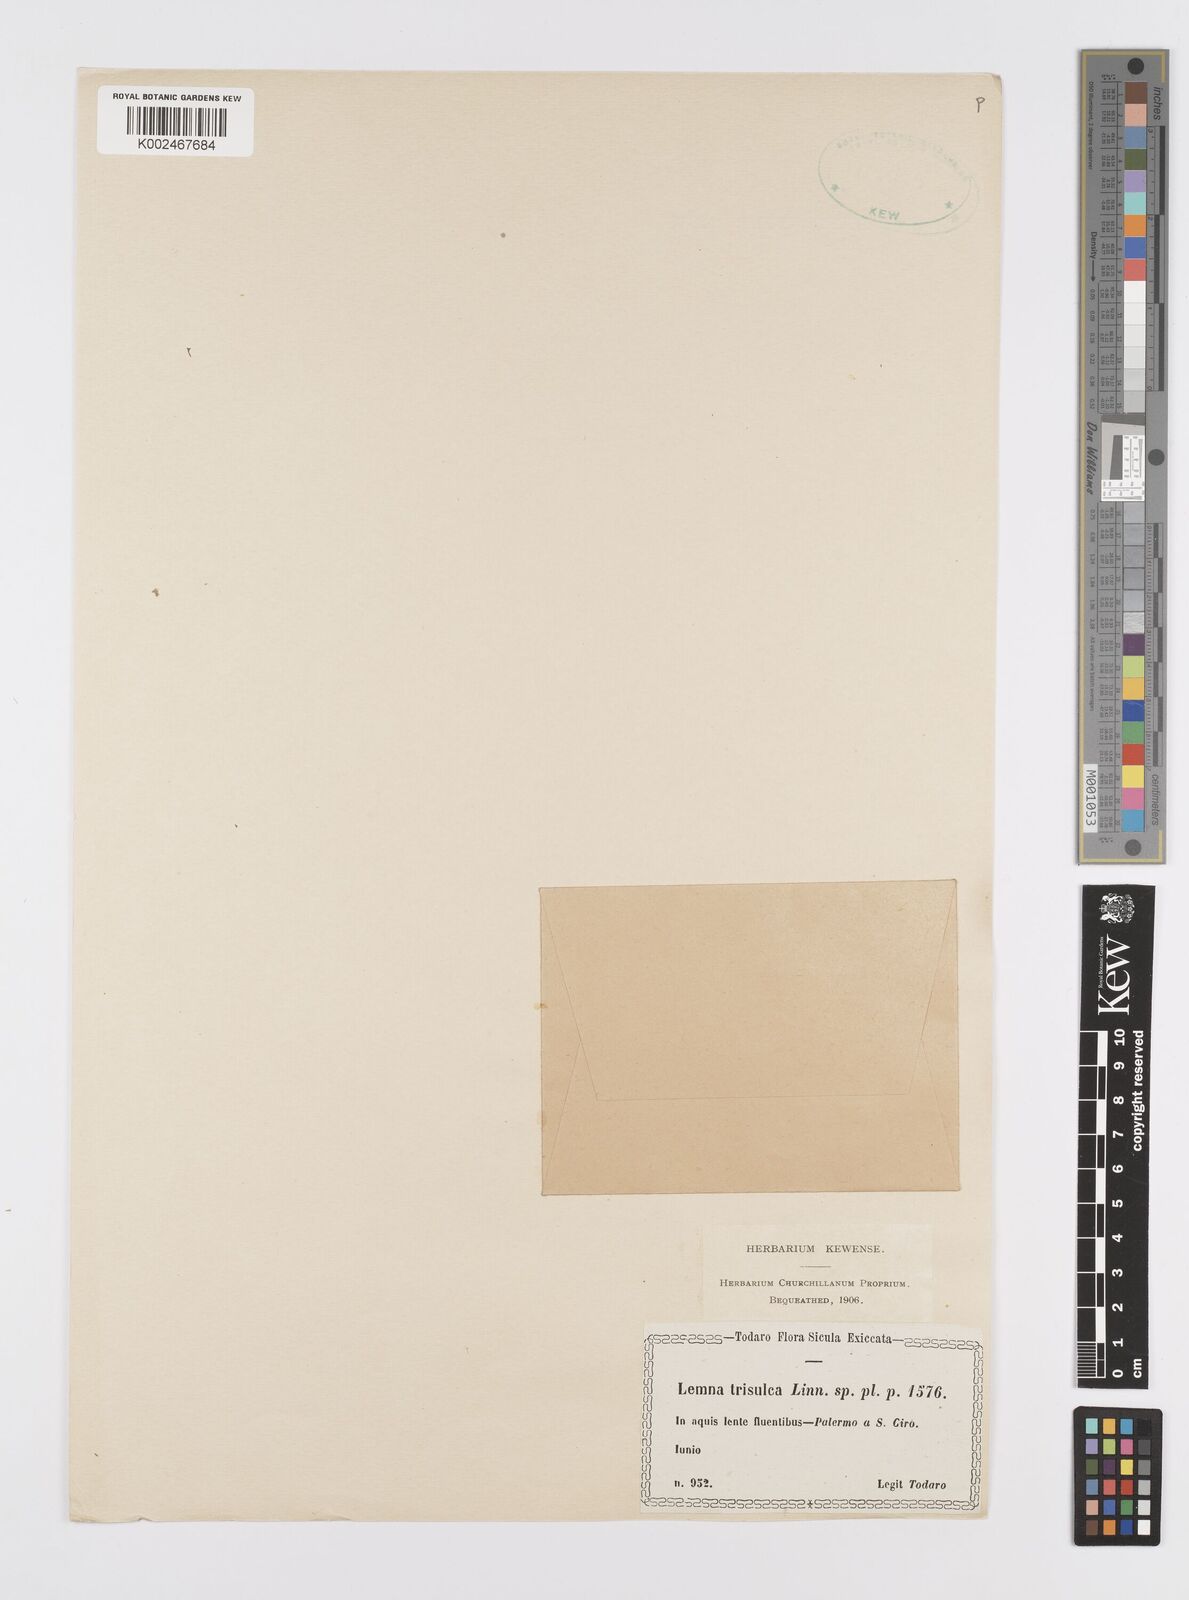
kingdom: Plantae
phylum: Tracheophyta
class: Liliopsida
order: Alismatales
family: Araceae
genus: Lemna
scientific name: Lemna trisulca
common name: Ivy-leaved duckweed
